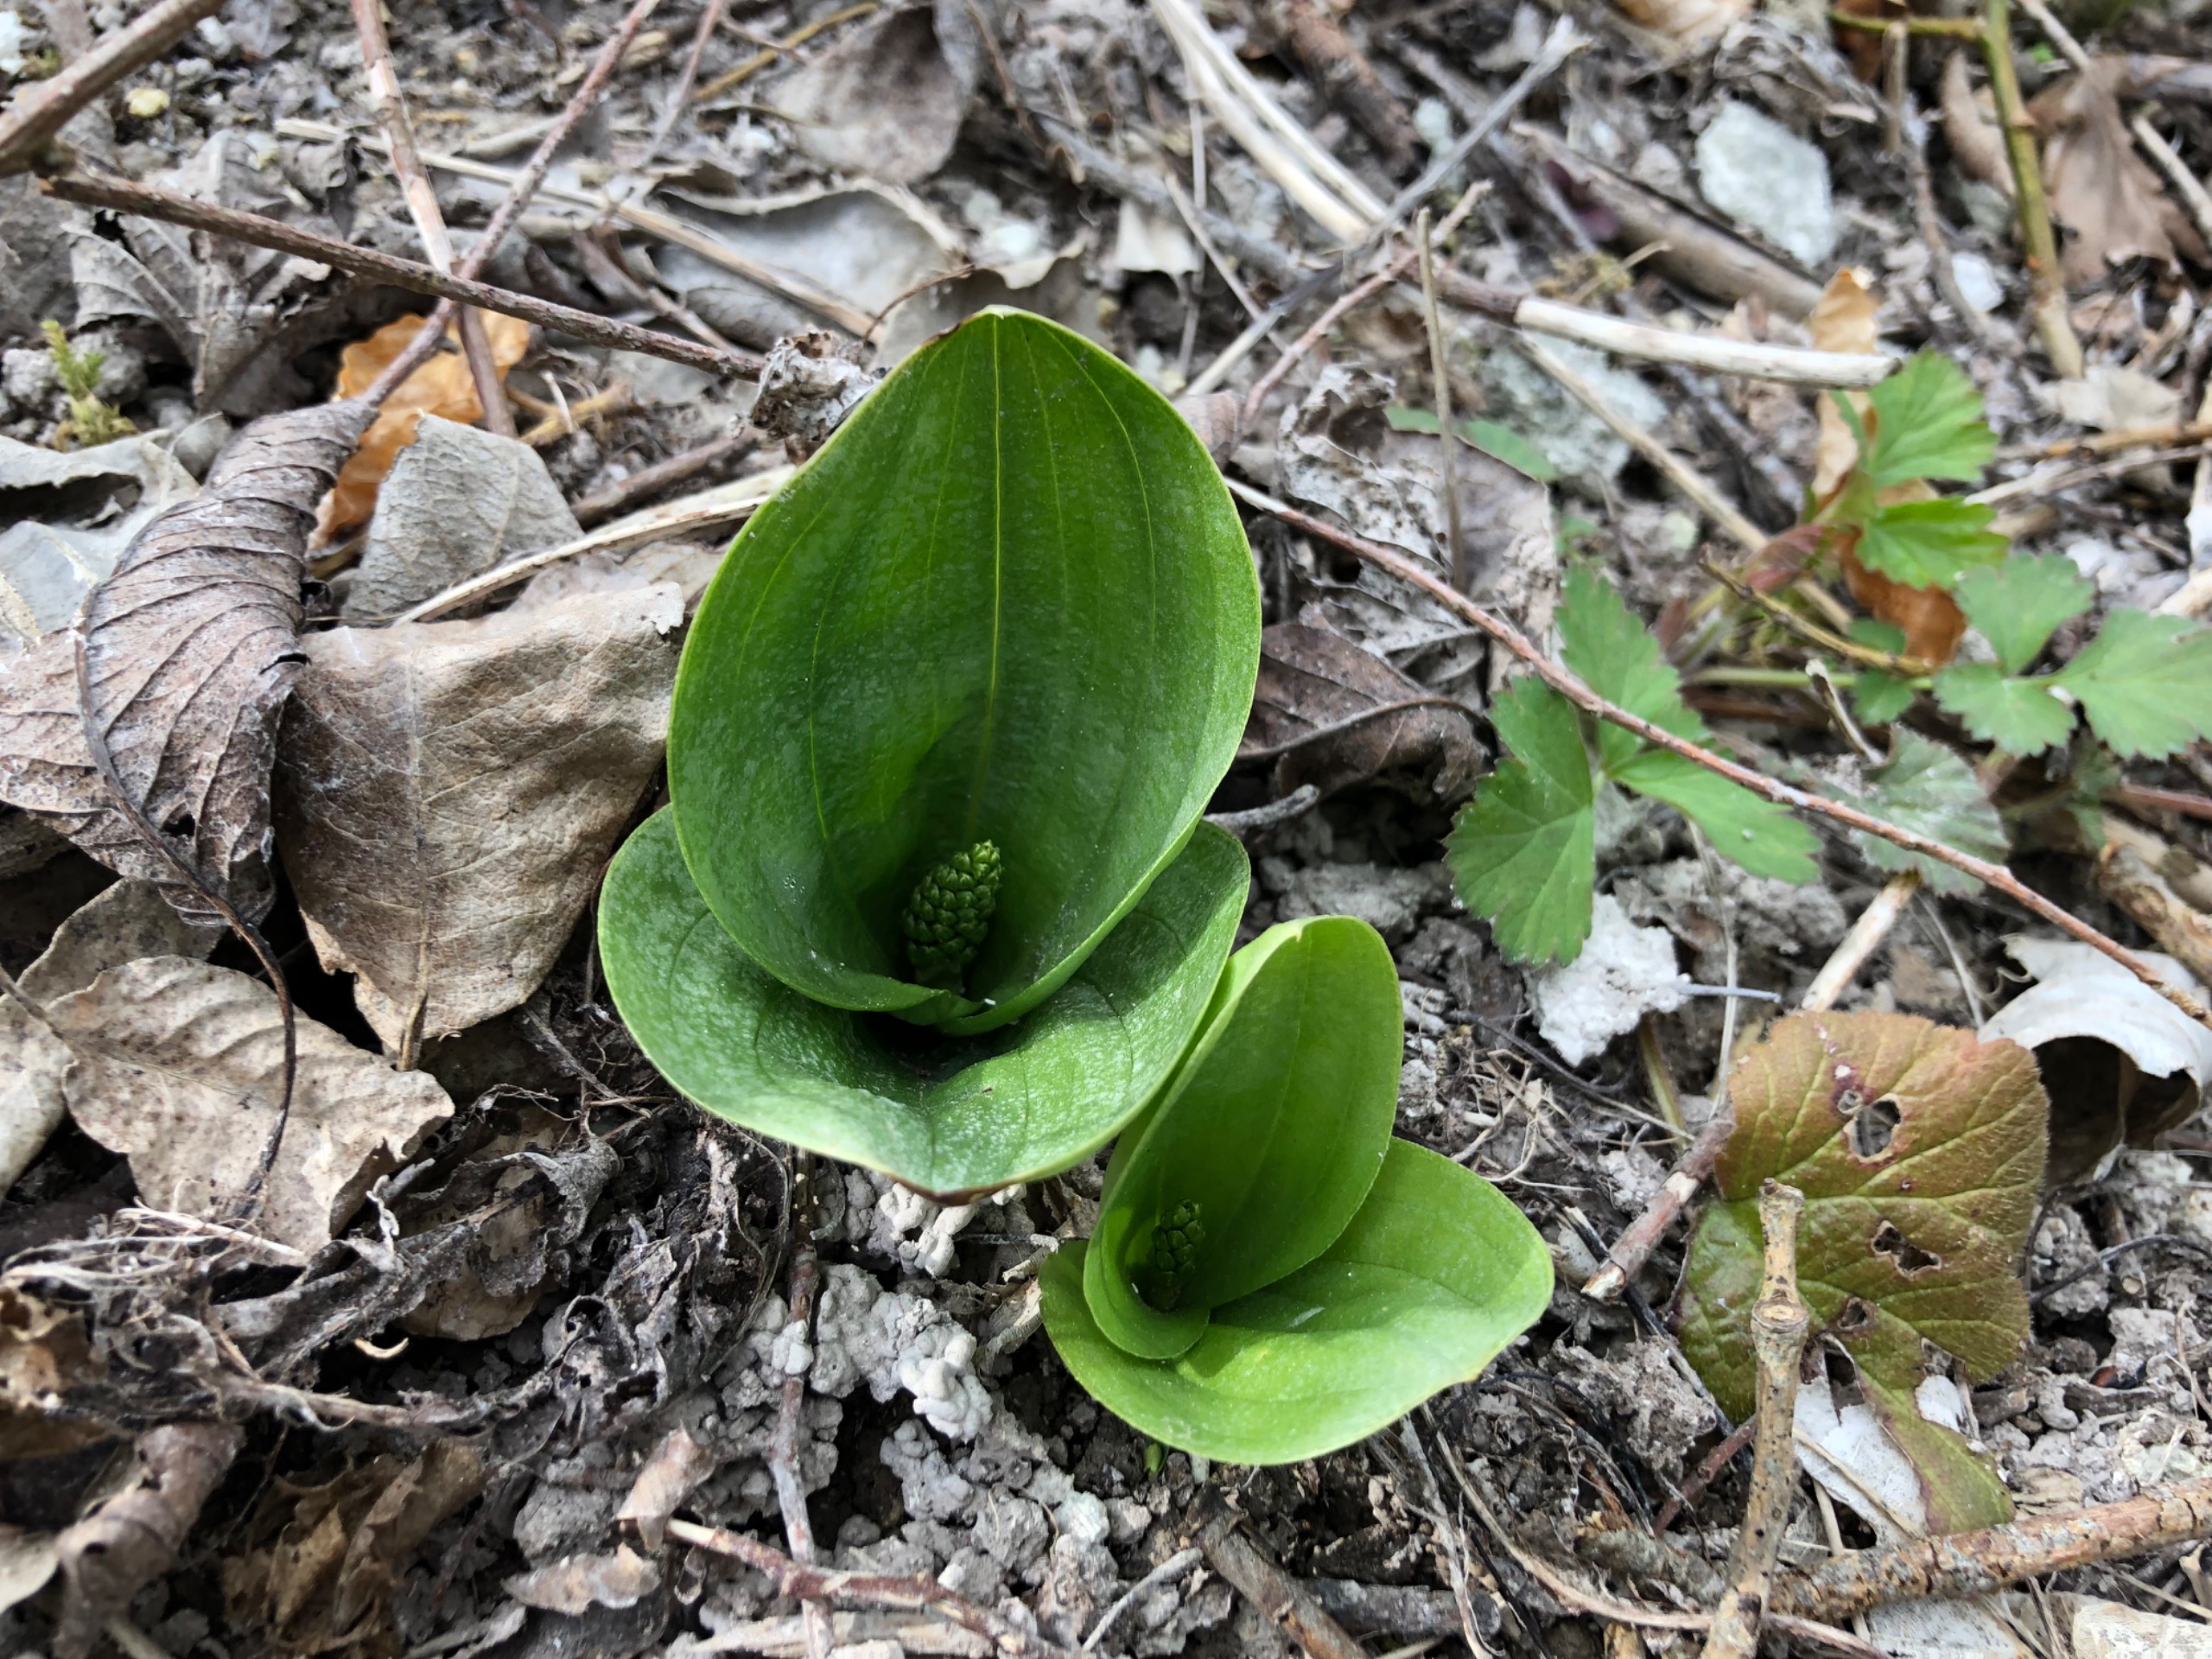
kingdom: Plantae
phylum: Tracheophyta
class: Liliopsida
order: Asparagales
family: Orchidaceae
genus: Neottia
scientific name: Neottia ovata
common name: Ægbladet fliglæbe
